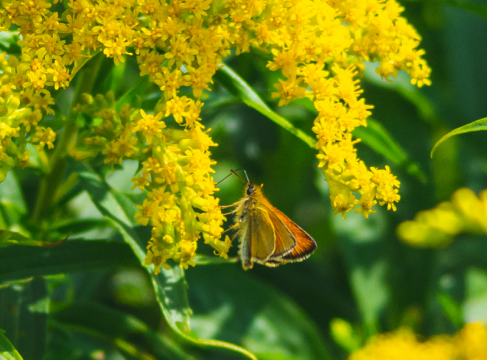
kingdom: Animalia
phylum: Arthropoda
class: Insecta
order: Lepidoptera
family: Hesperiidae
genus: Thymelicus
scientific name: Thymelicus lineola
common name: European Skipper
